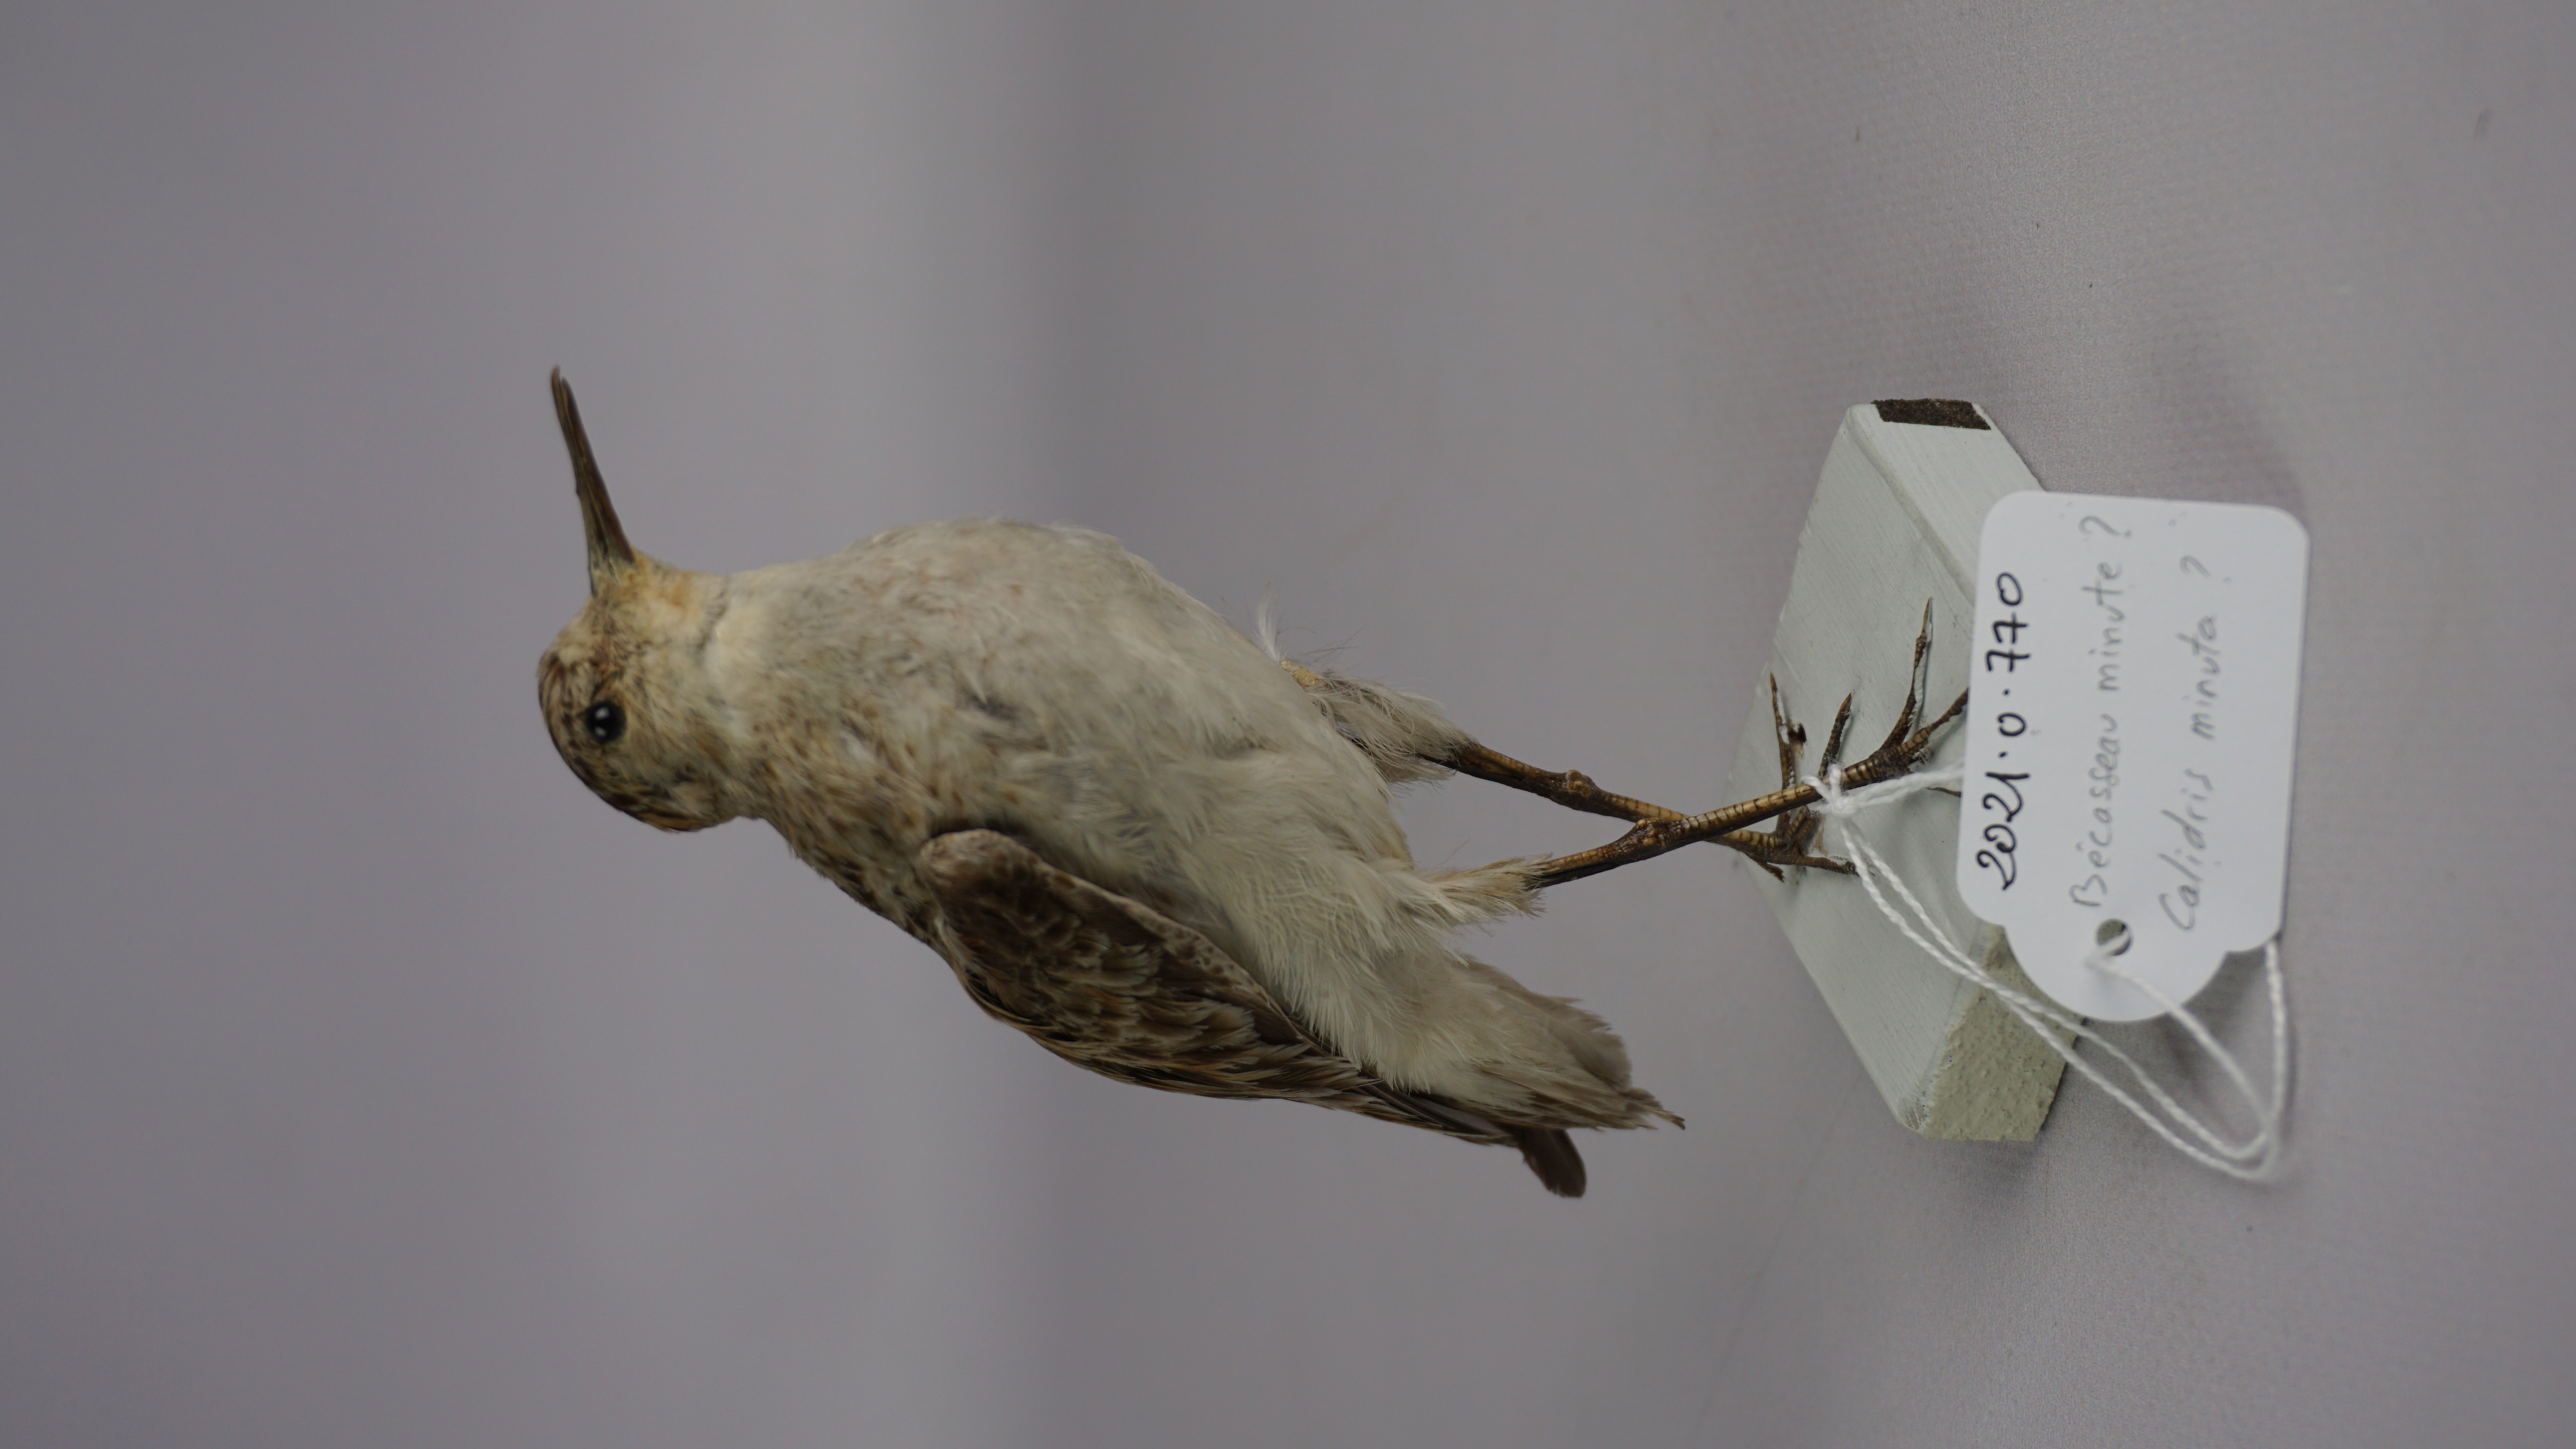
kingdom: Animalia
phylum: Chordata
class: Aves
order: Charadriiformes
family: Scolopacidae
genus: Calidris
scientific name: Calidris minuta
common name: Little stint
